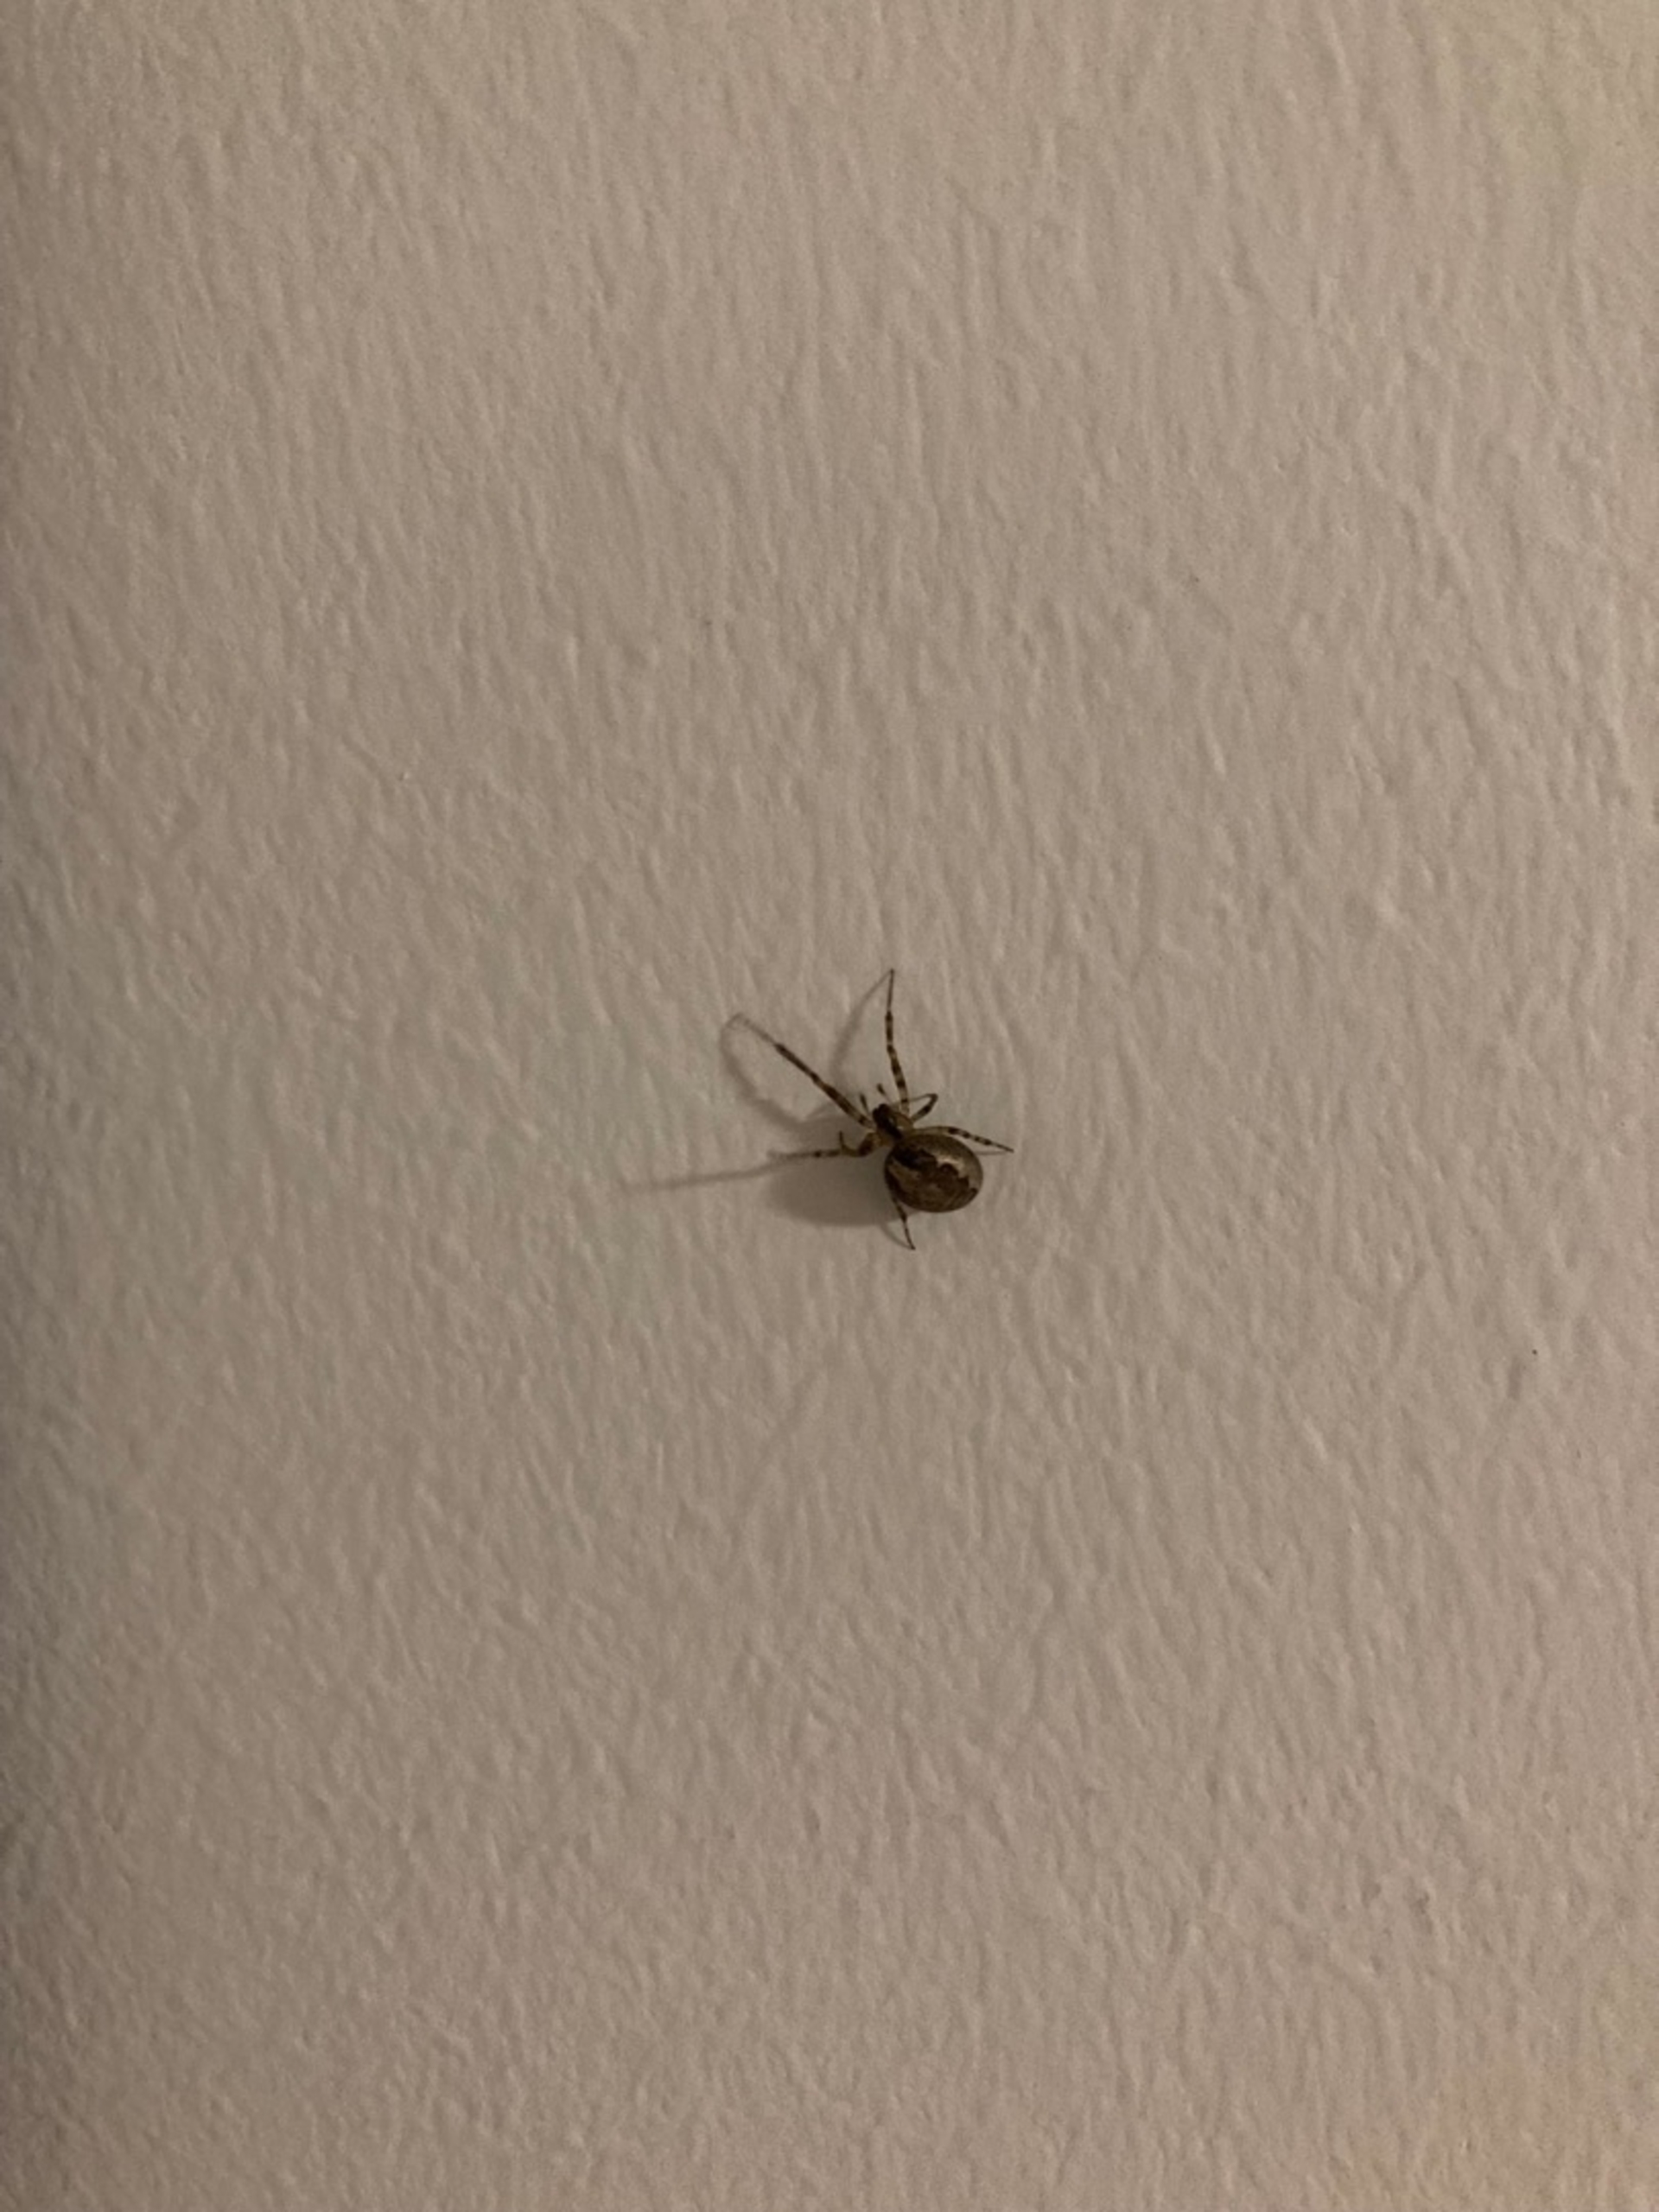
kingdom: Animalia
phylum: Arthropoda
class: Arachnida
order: Araneae
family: Araneidae
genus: Zygiella
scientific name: Zygiella x-notata
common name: Grå sektoredderkop
